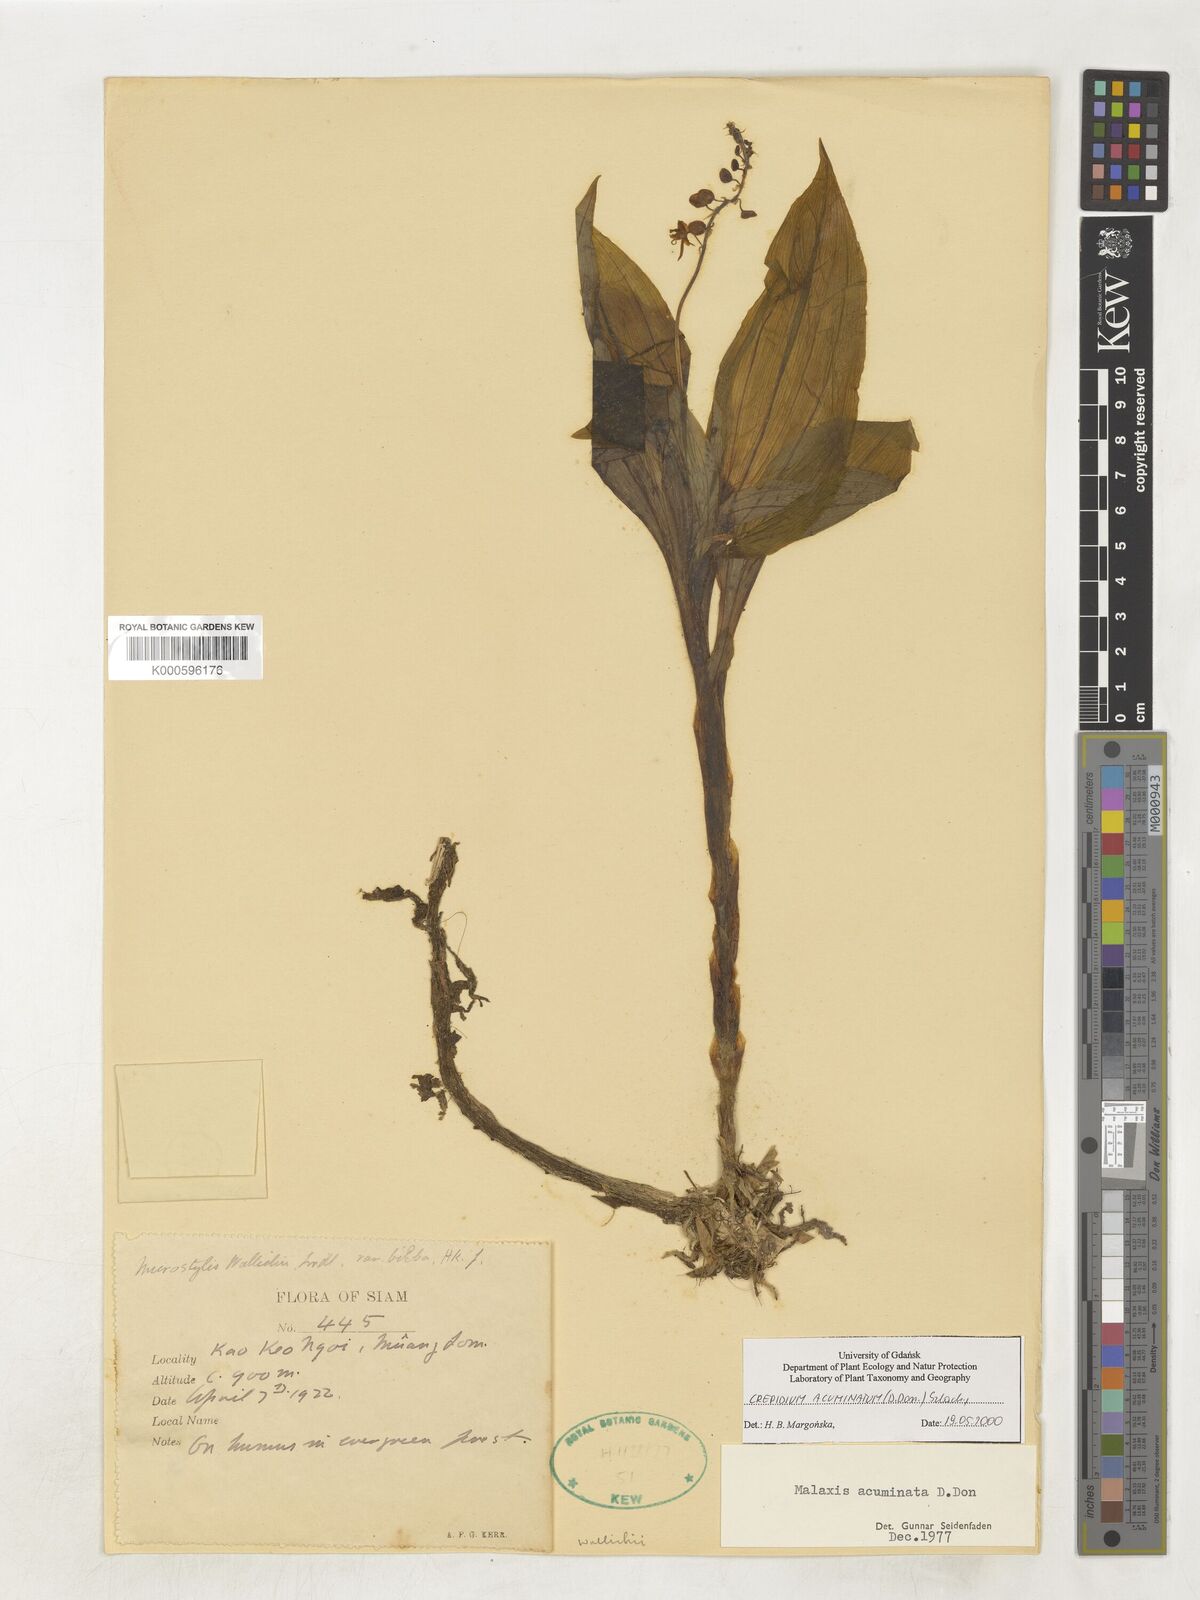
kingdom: Plantae
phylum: Tracheophyta
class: Liliopsida
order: Asparagales
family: Orchidaceae
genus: Crepidium
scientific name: Crepidium acuminatum
